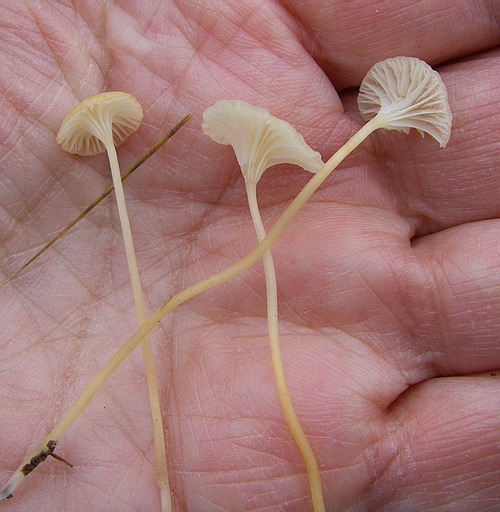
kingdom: Fungi
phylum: Basidiomycota
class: Agaricomycetes
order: Hymenochaetales
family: Rickenellaceae
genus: Rickenella
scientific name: Rickenella fibula
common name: orange mosnavlehat
